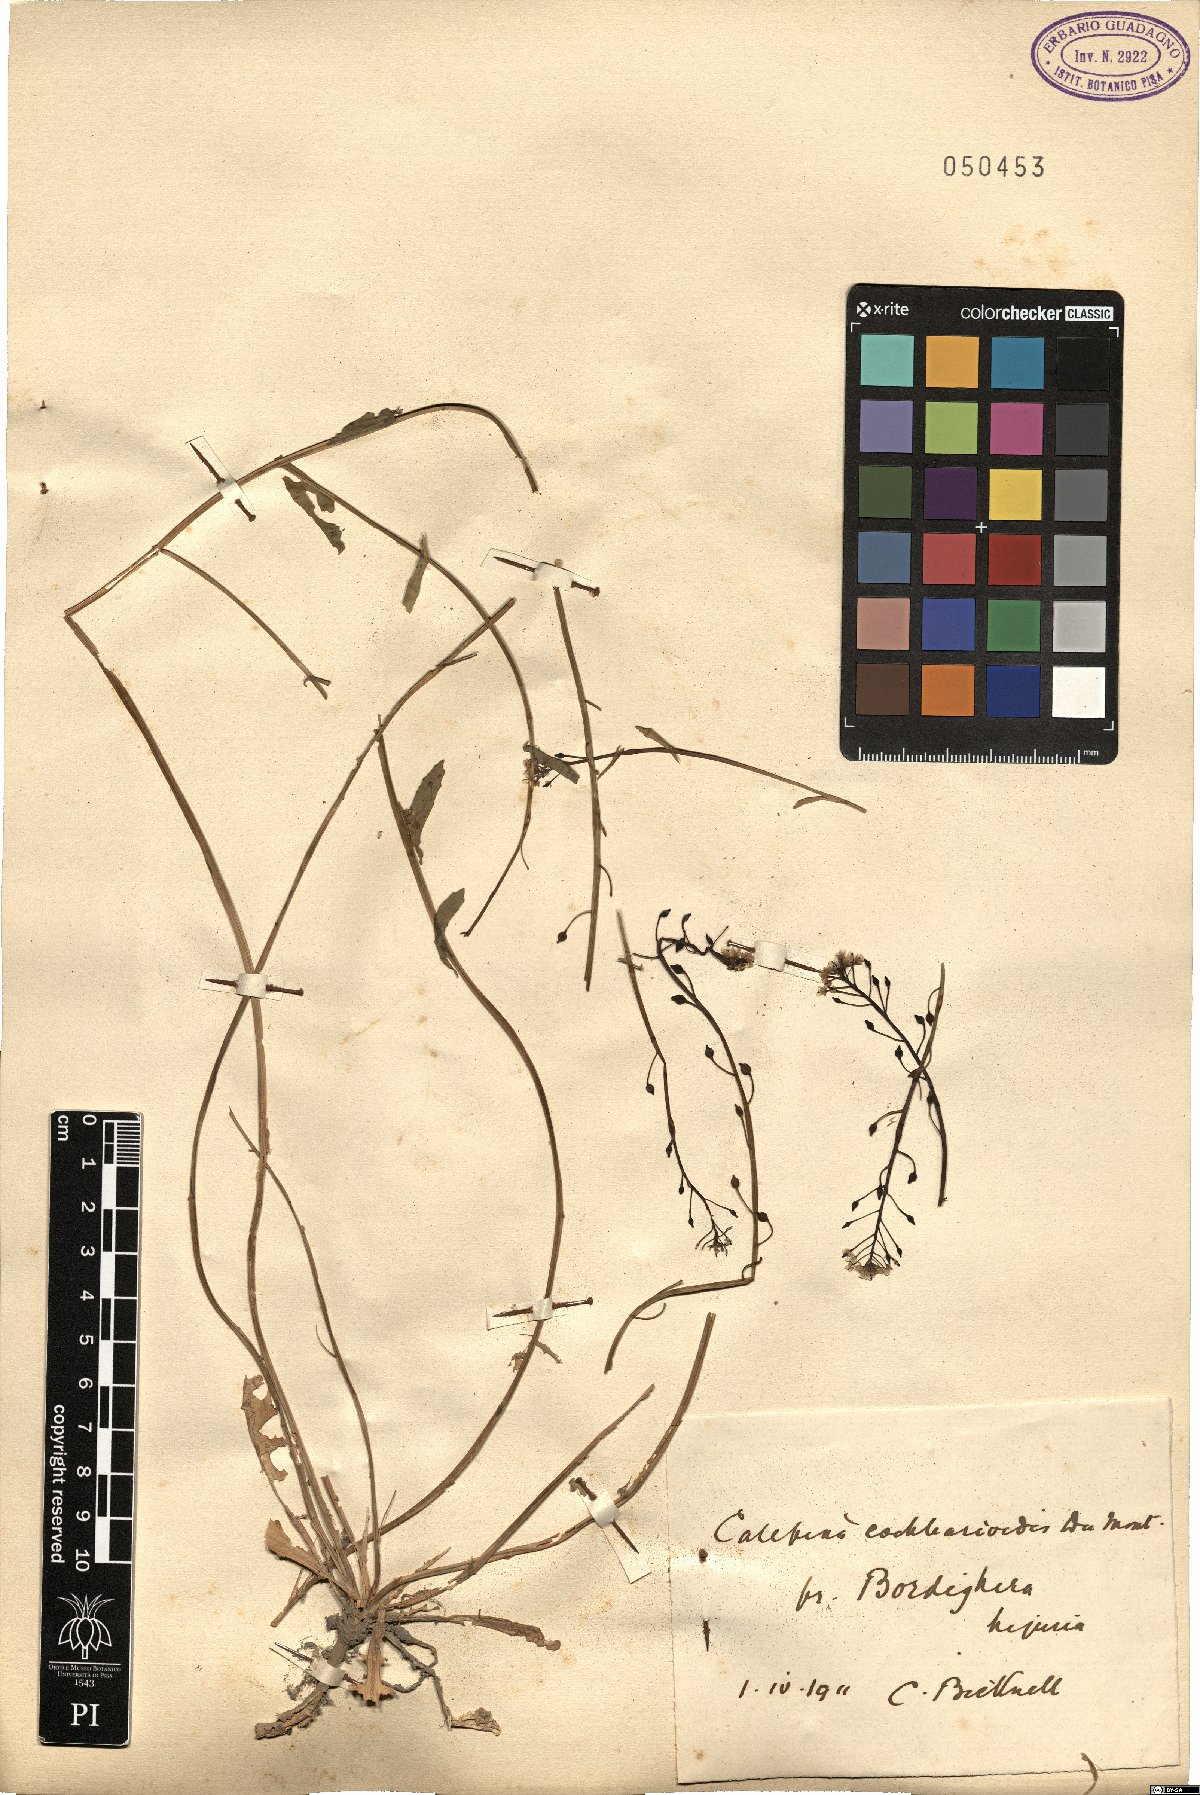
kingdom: Plantae
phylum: Tracheophyta
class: Magnoliopsida
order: Brassicales
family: Brassicaceae
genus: Calepina
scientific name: Calepina cochlearioides
